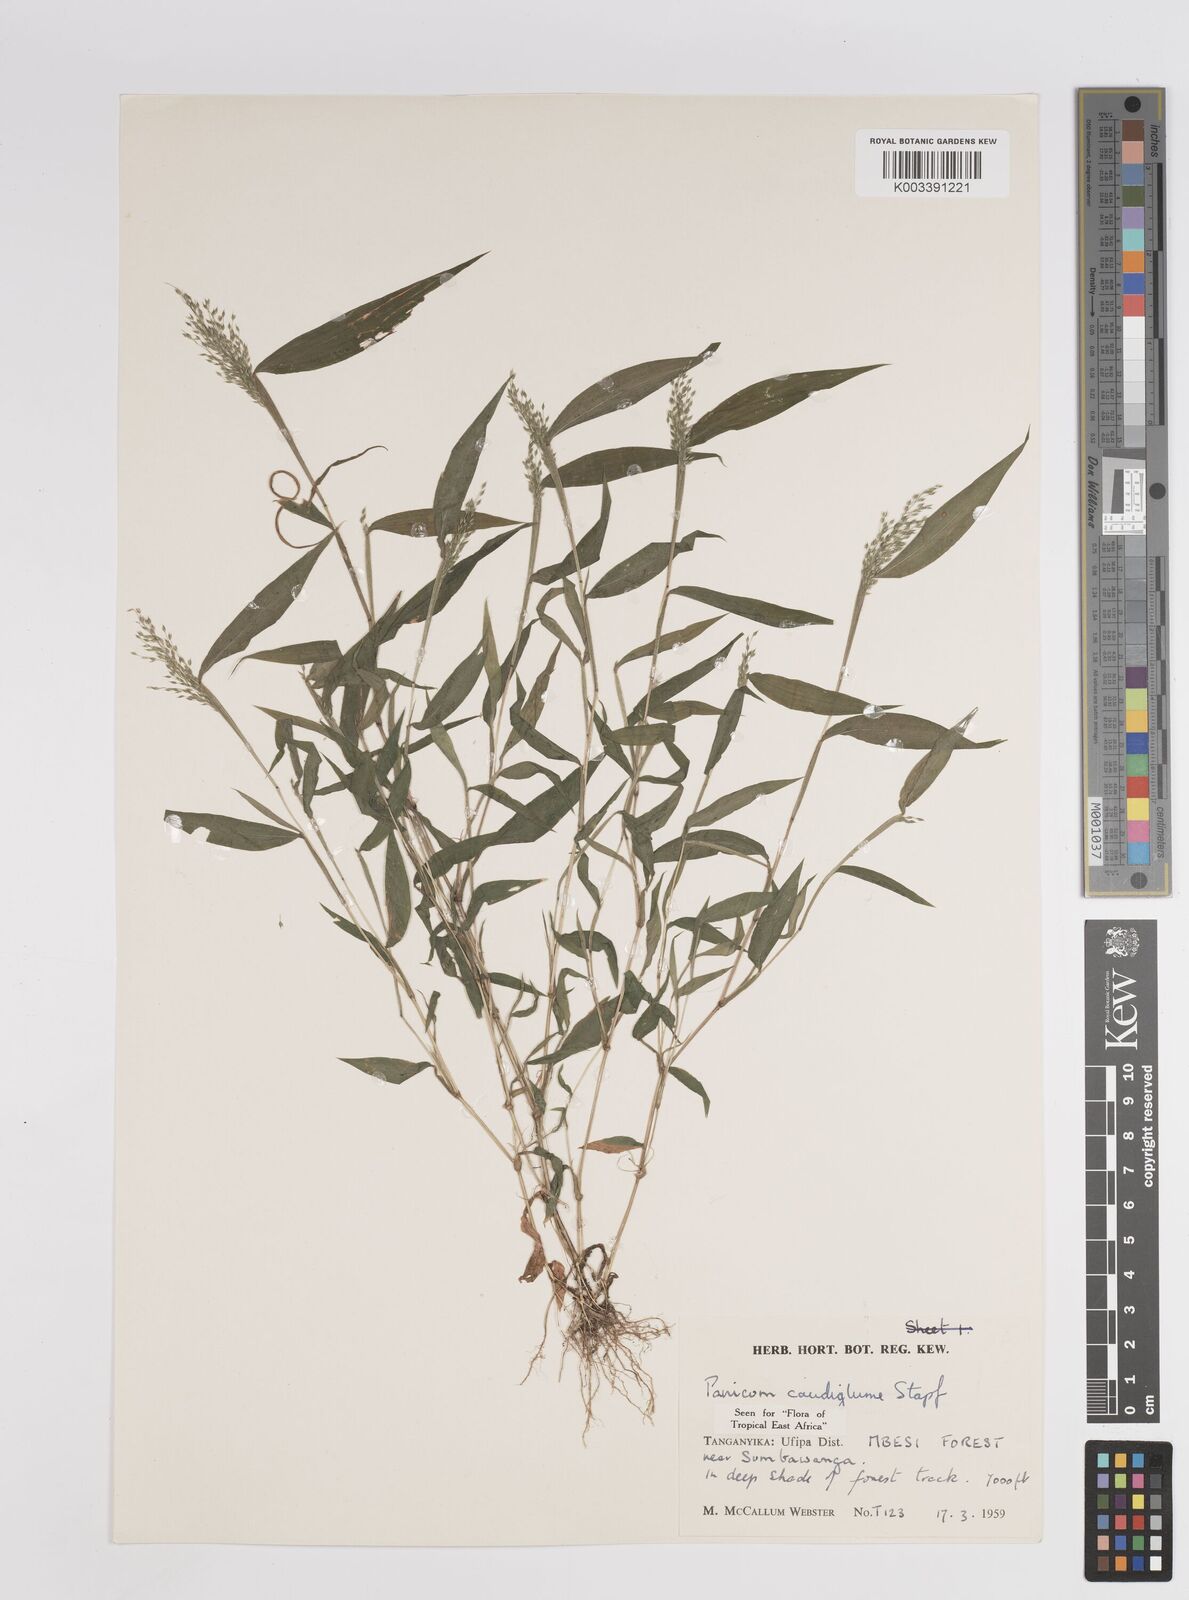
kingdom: Plantae
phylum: Tracheophyta
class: Liliopsida
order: Poales
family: Poaceae
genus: Panicum
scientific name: Panicum delicatulum
